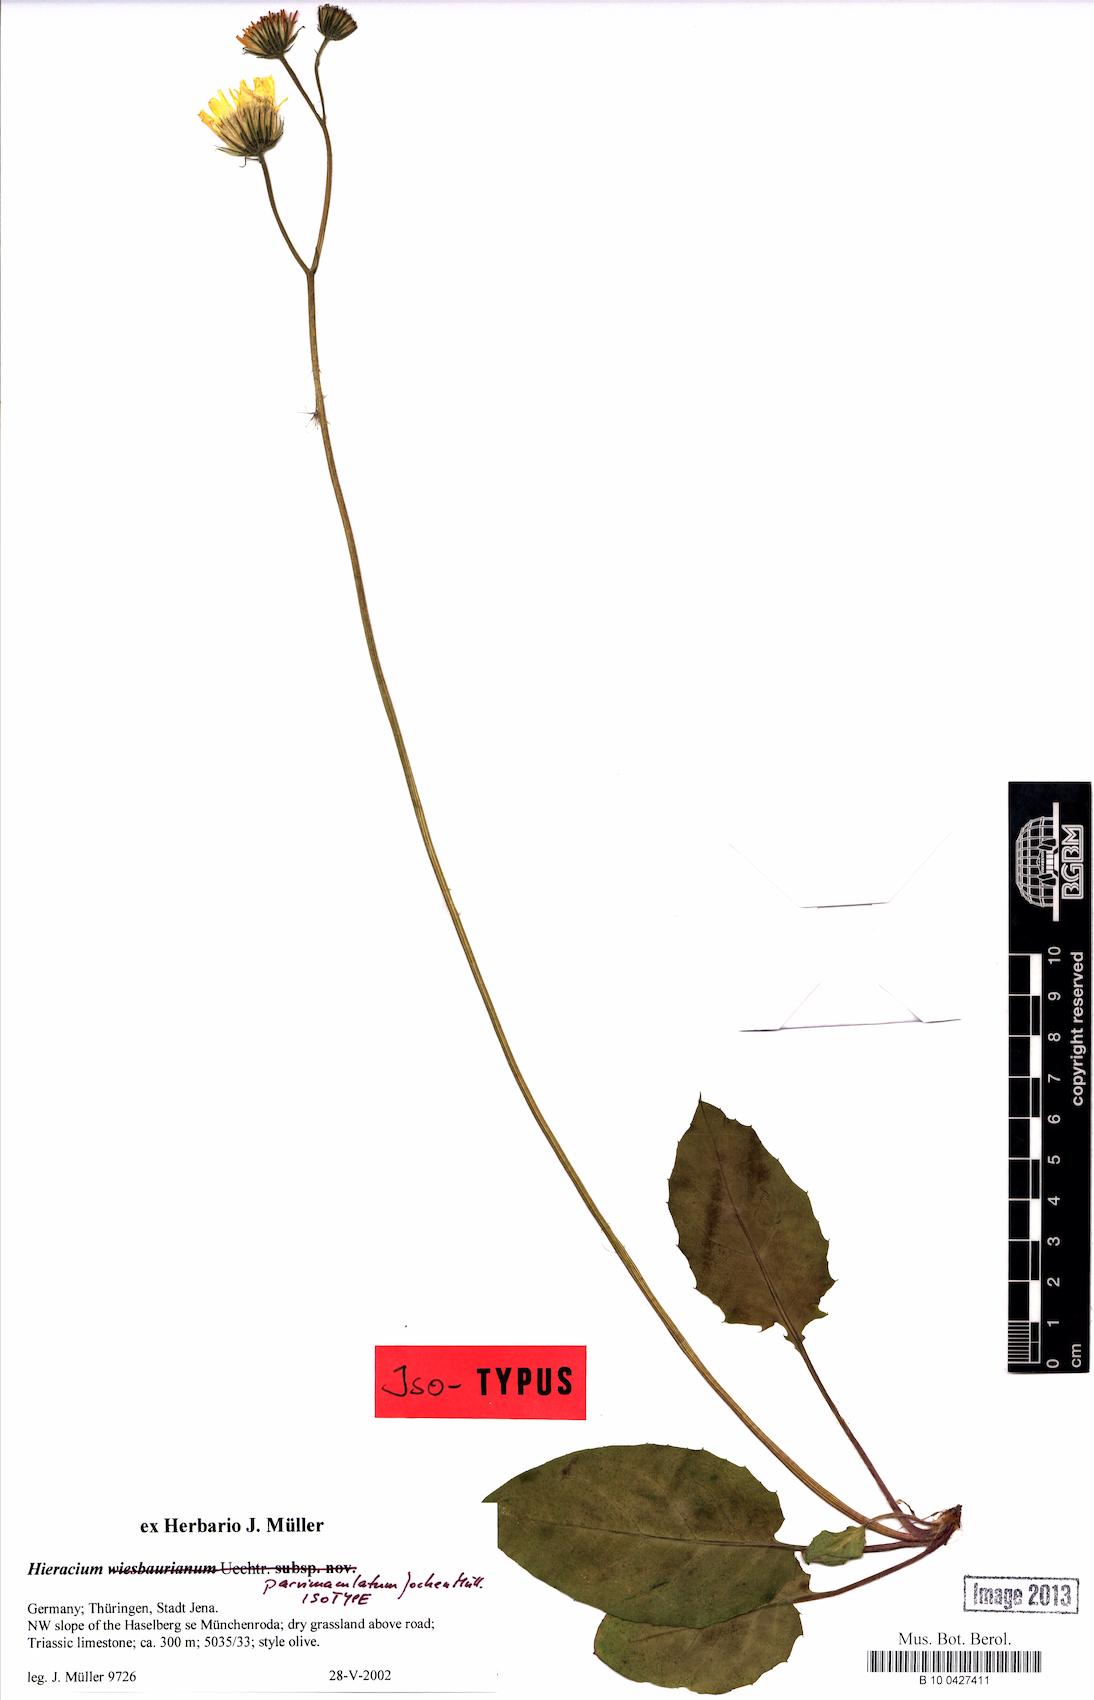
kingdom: Plantae
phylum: Tracheophyta
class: Magnoliopsida
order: Asterales
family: Asteraceae
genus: Hieracium
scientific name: Hieracium hypochoeroides
